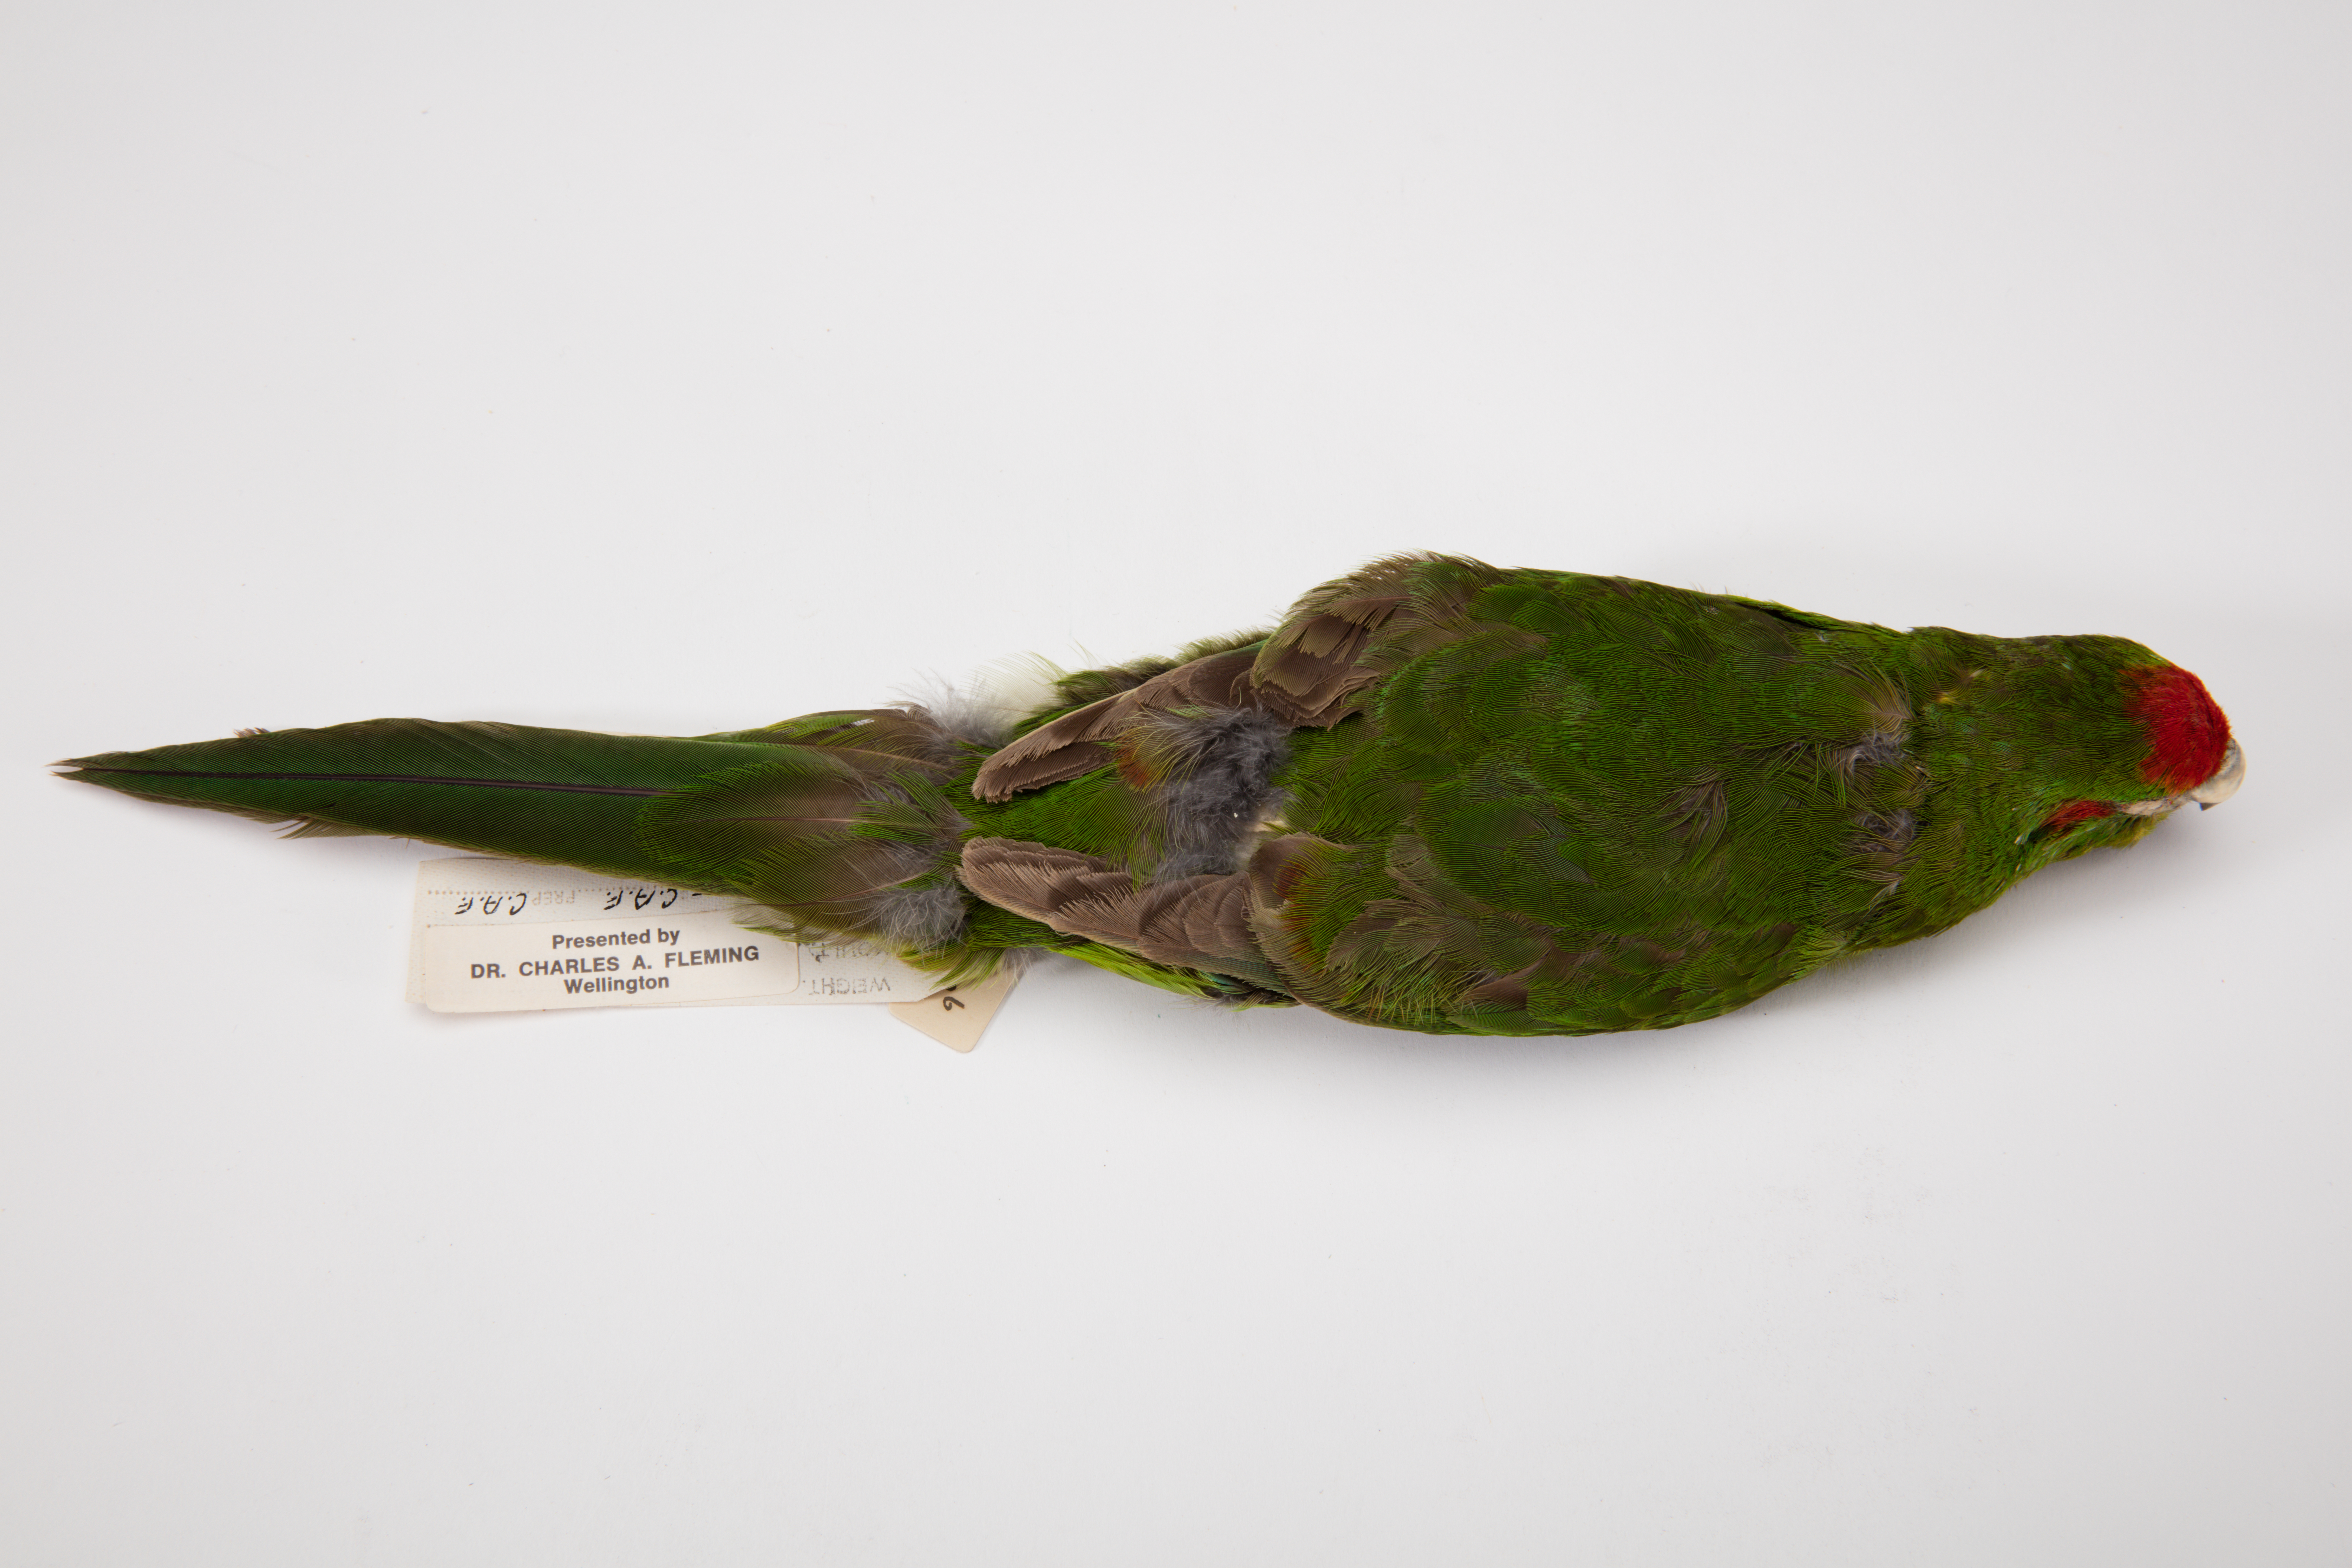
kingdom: Animalia
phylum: Chordata
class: Aves
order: Psittaciformes
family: Psittacidae
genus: Cyanoramphus
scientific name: Cyanoramphus novaezelandiae
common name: Red-fronted parakeet
